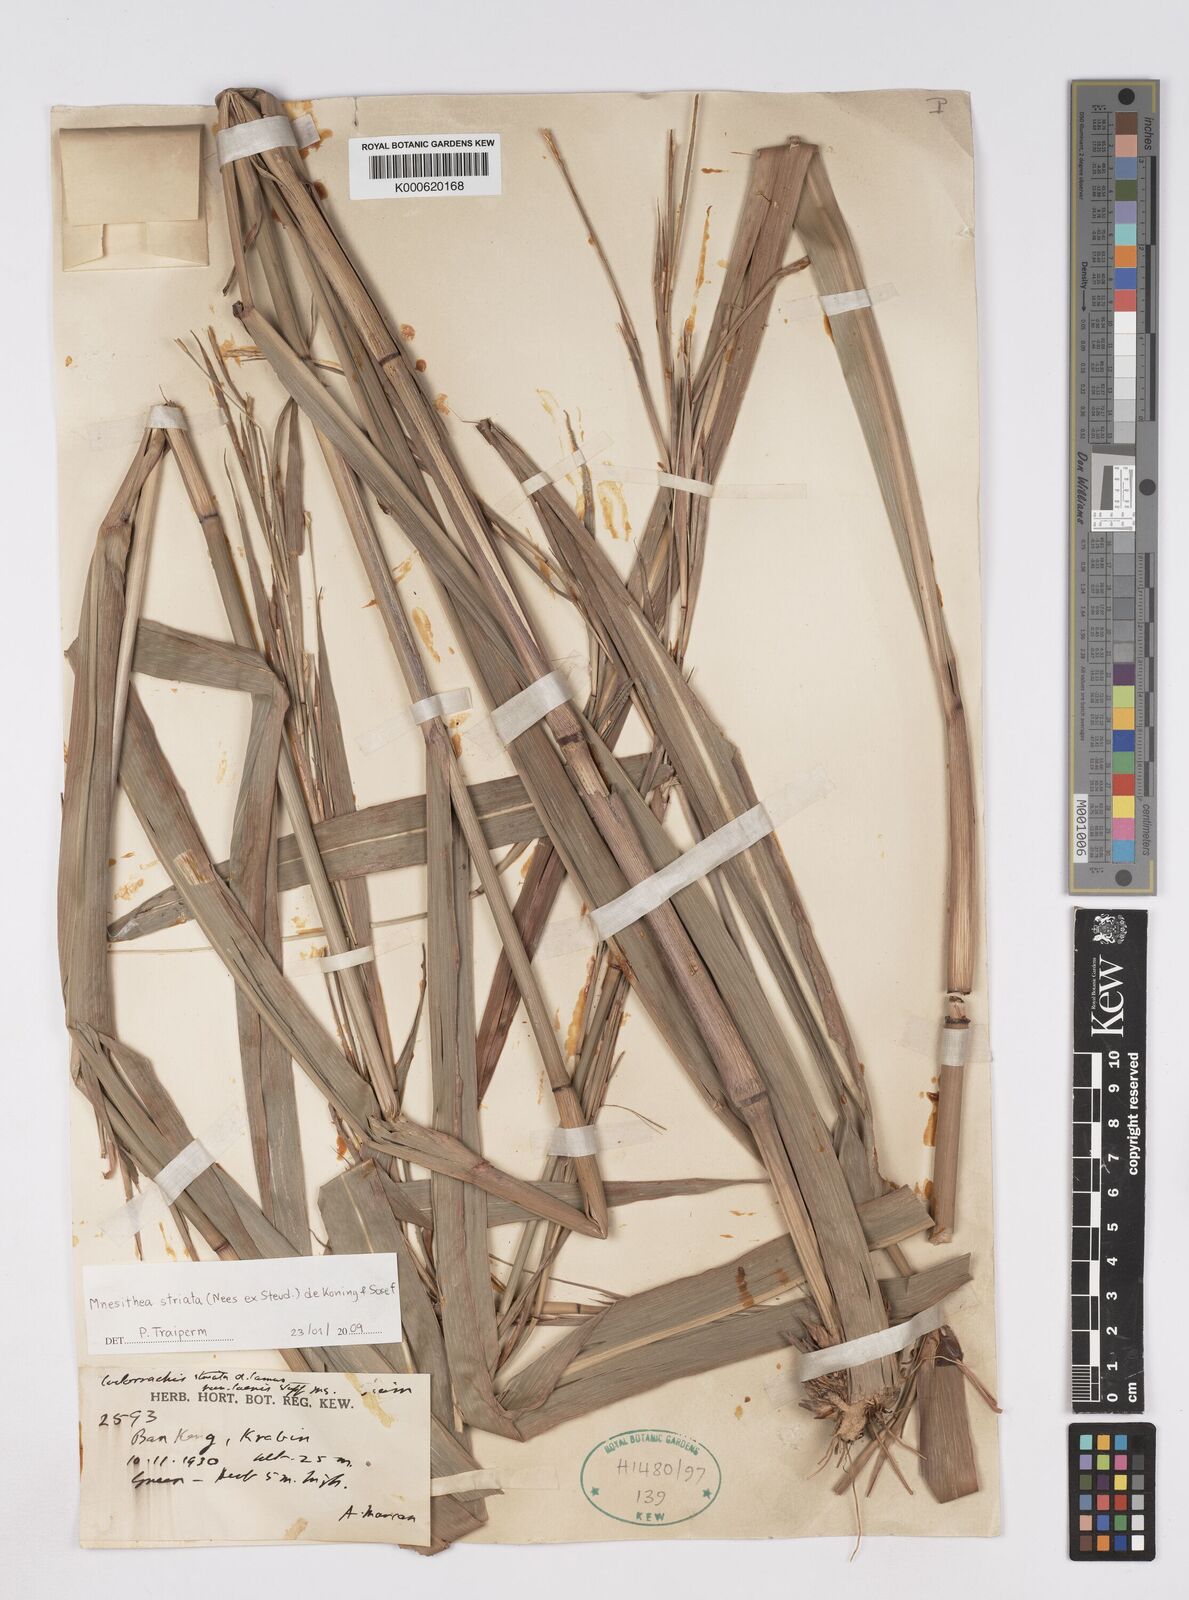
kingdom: Plantae
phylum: Tracheophyta
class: Liliopsida
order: Poales
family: Poaceae
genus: Rottboellia
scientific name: Rottboellia striata
